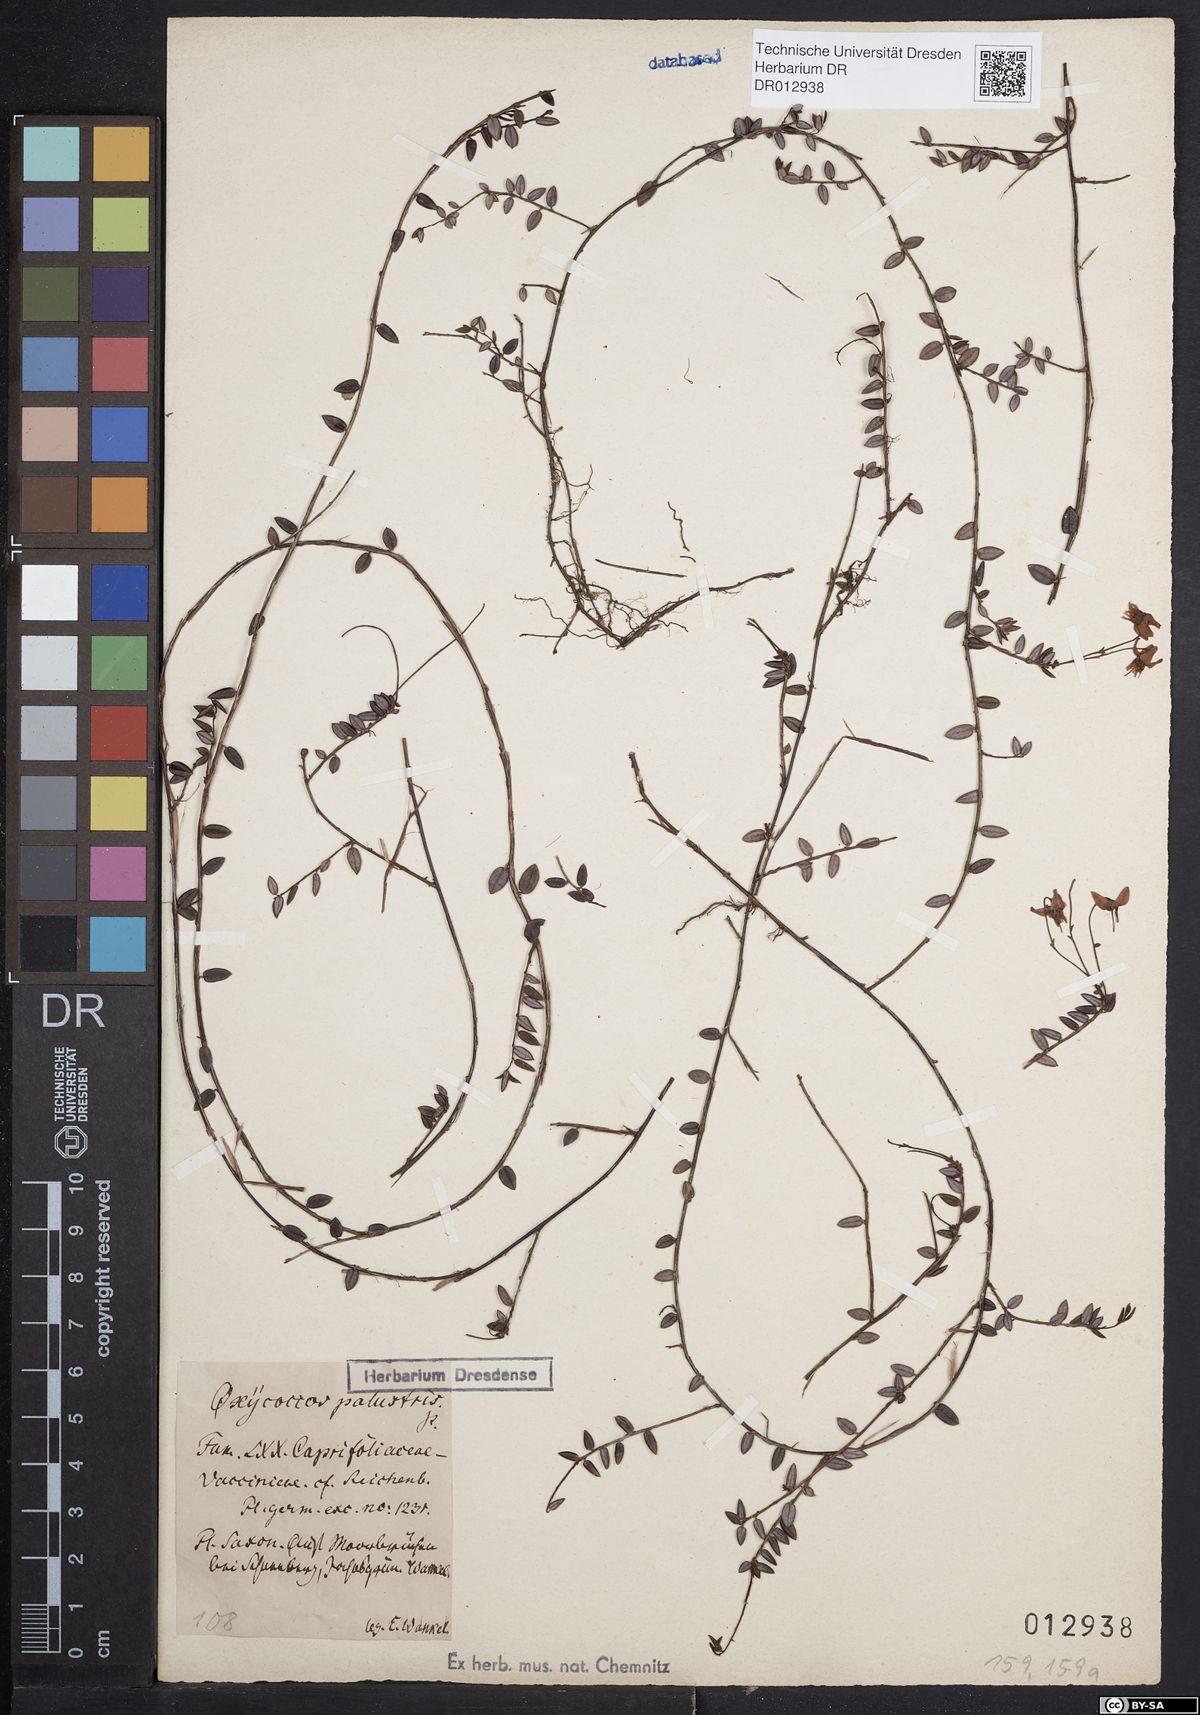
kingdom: Plantae
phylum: Tracheophyta
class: Magnoliopsida
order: Ericales
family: Ericaceae
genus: Vaccinium
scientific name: Vaccinium oxycoccos
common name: Cranberry
